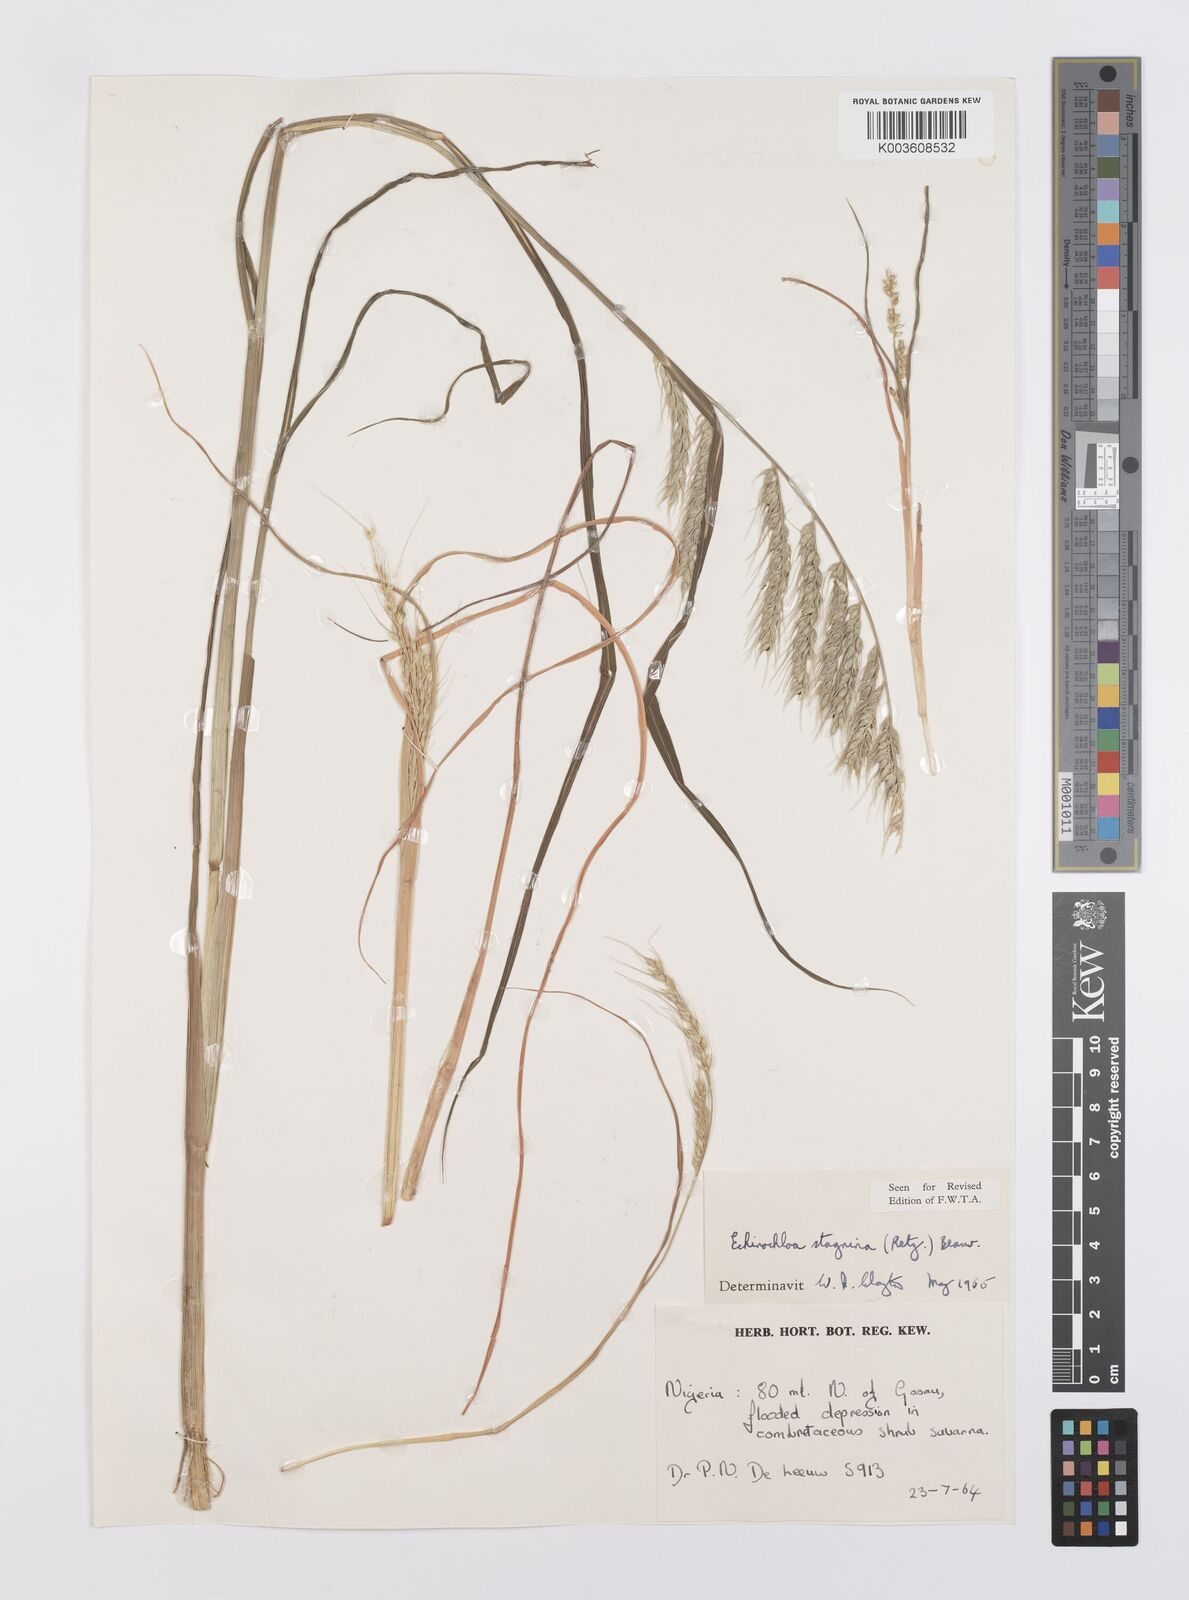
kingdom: Plantae
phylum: Tracheophyta
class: Liliopsida
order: Poales
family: Poaceae
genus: Echinochloa
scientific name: Echinochloa stagnina
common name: Burgu grass
